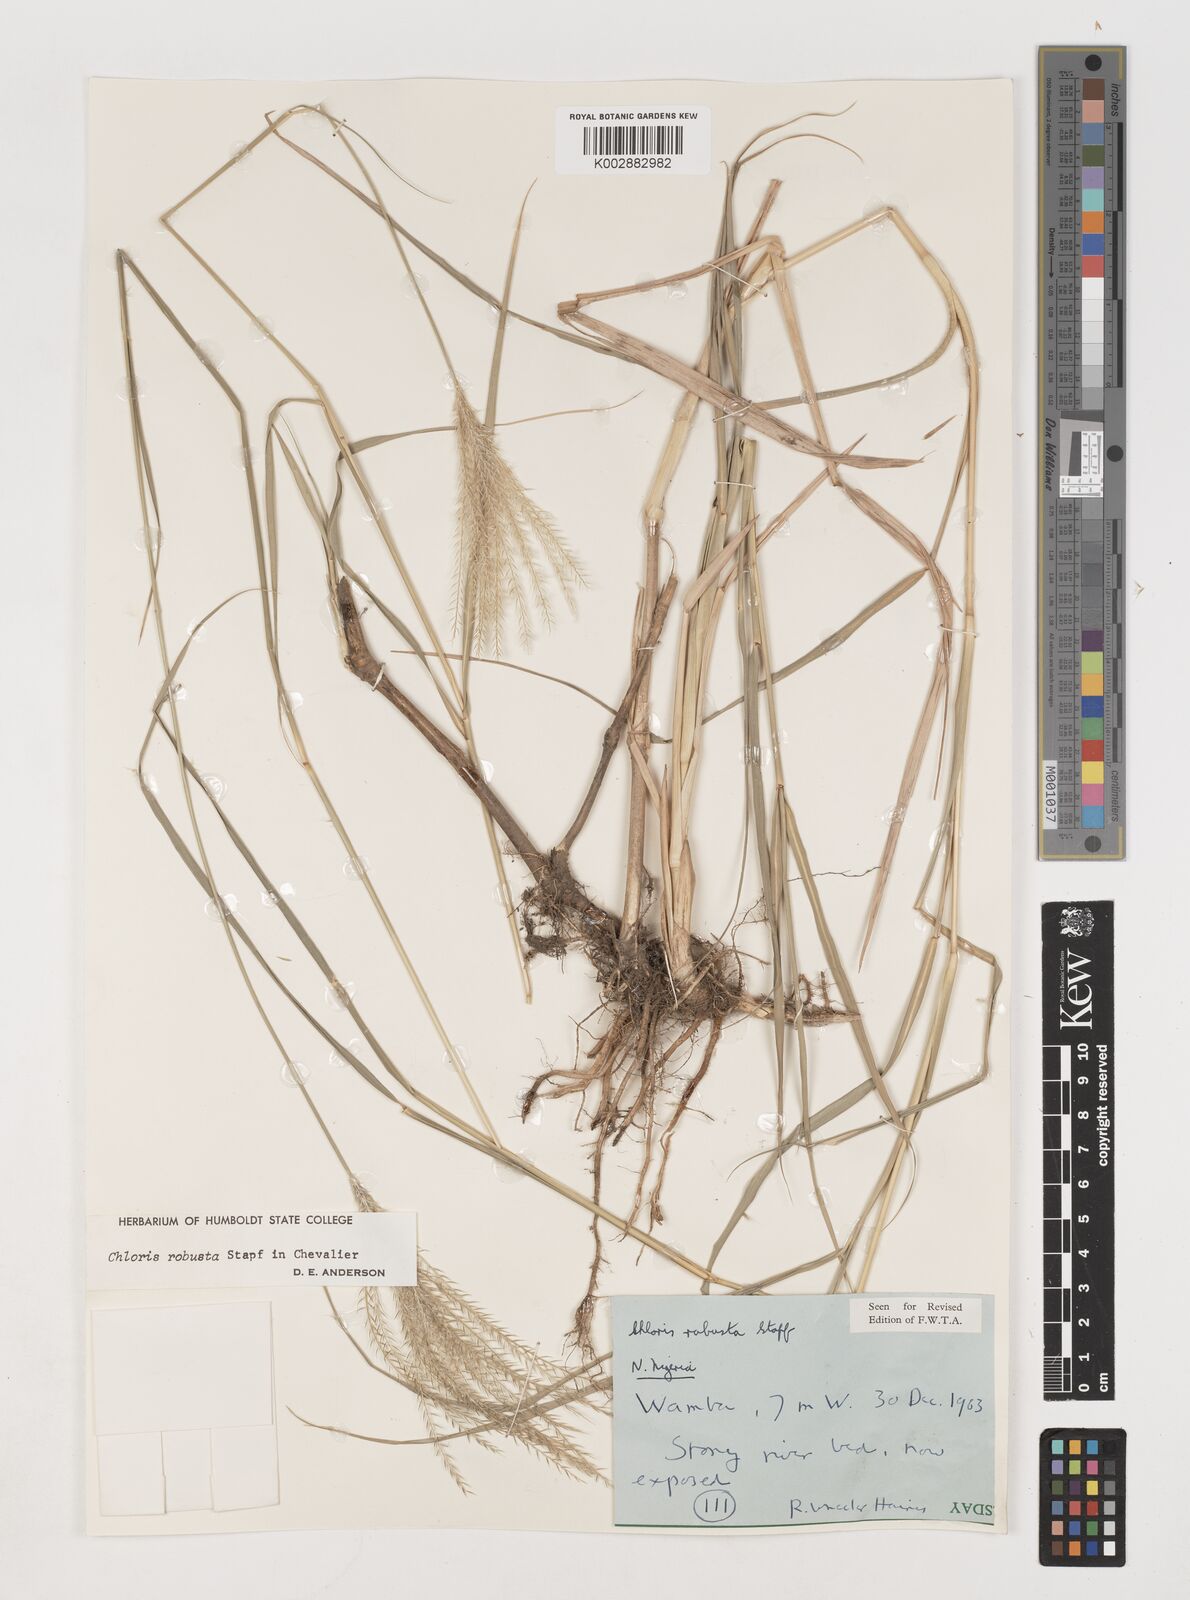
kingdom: Plantae
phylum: Tracheophyta
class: Liliopsida
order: Poales
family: Poaceae
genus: Chloris
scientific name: Chloris robusta
